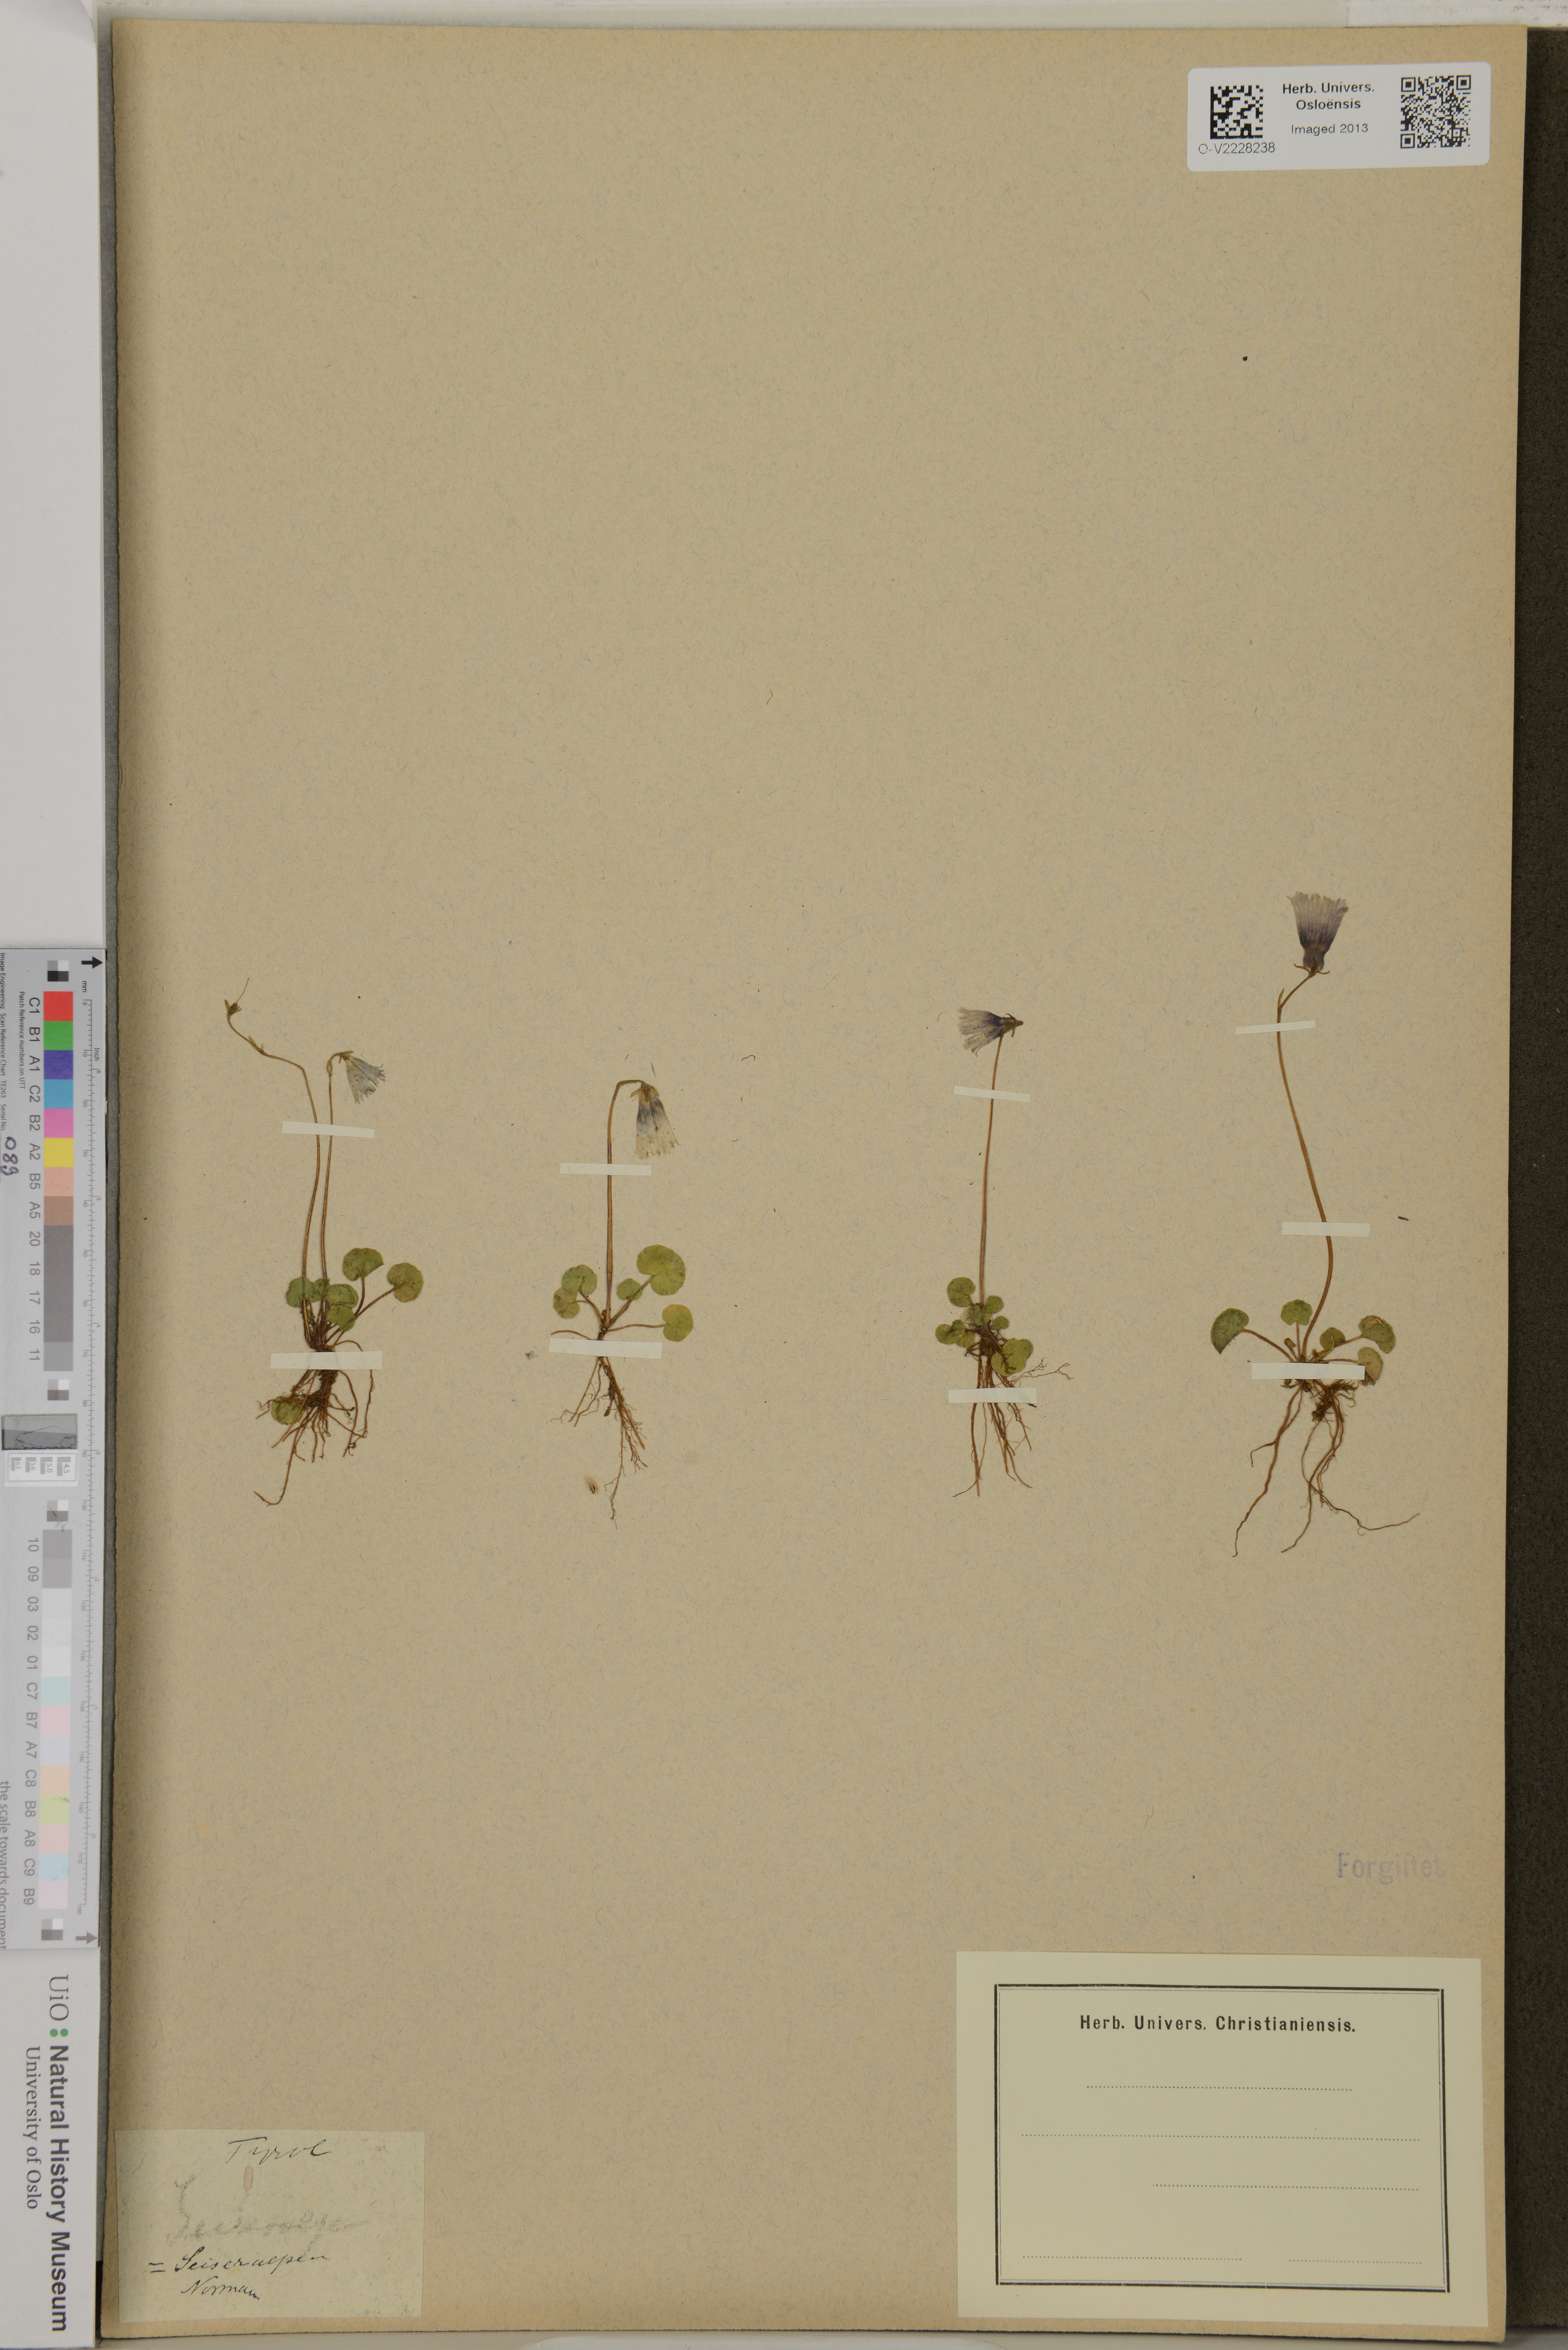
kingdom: Plantae
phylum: Tracheophyta
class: Magnoliopsida
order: Ericales
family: Primulaceae
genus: Soldanella
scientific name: Soldanella
